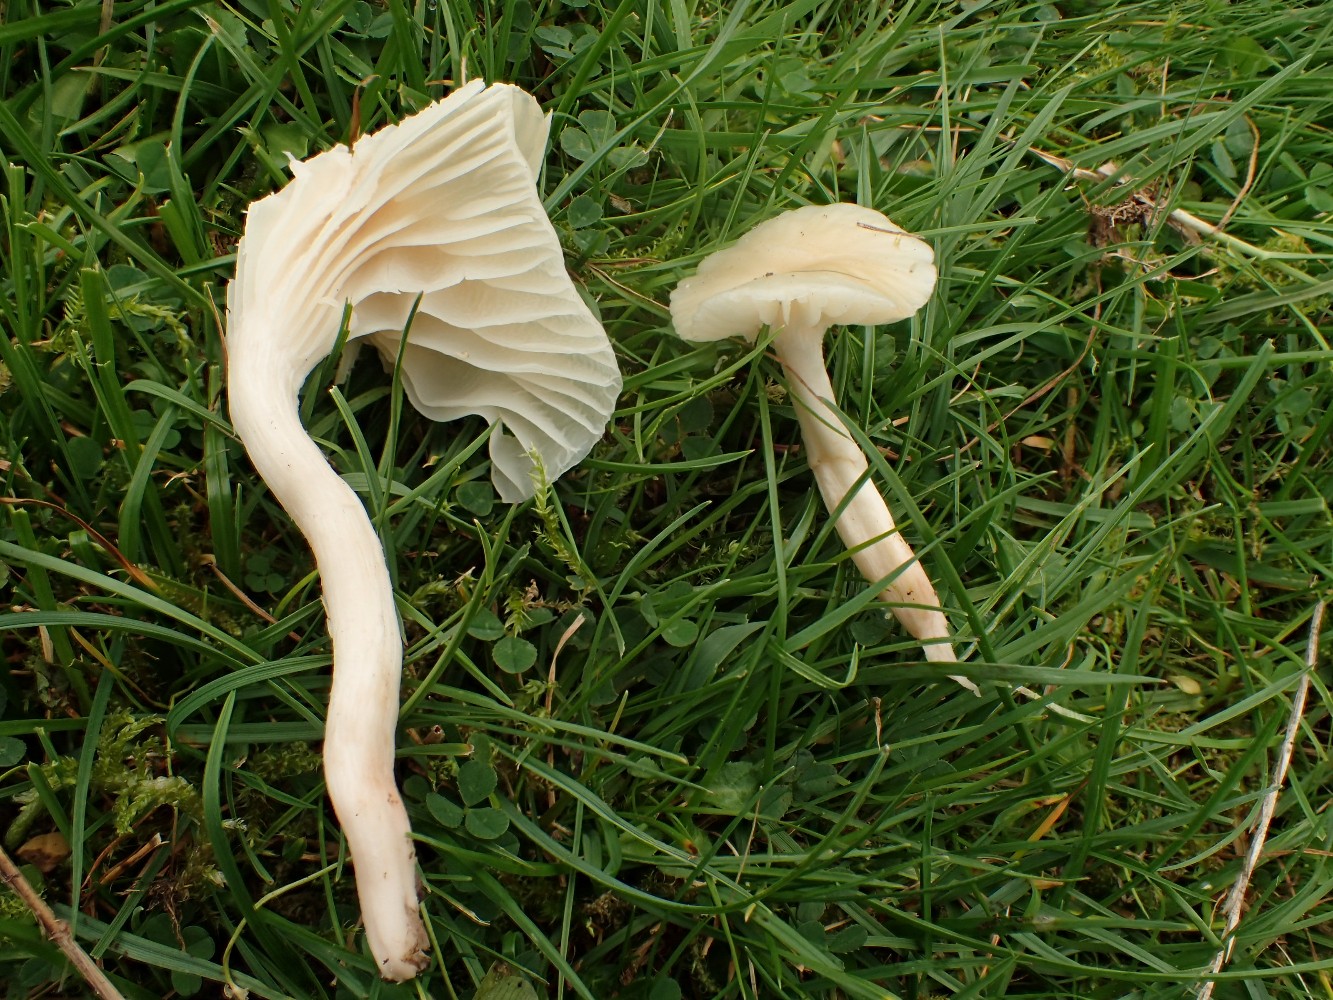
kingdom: Fungi
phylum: Basidiomycota
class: Agaricomycetes
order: Agaricales
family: Hygrophoraceae
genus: Cuphophyllus
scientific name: Cuphophyllus virgineus
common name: isabella-vokshat
